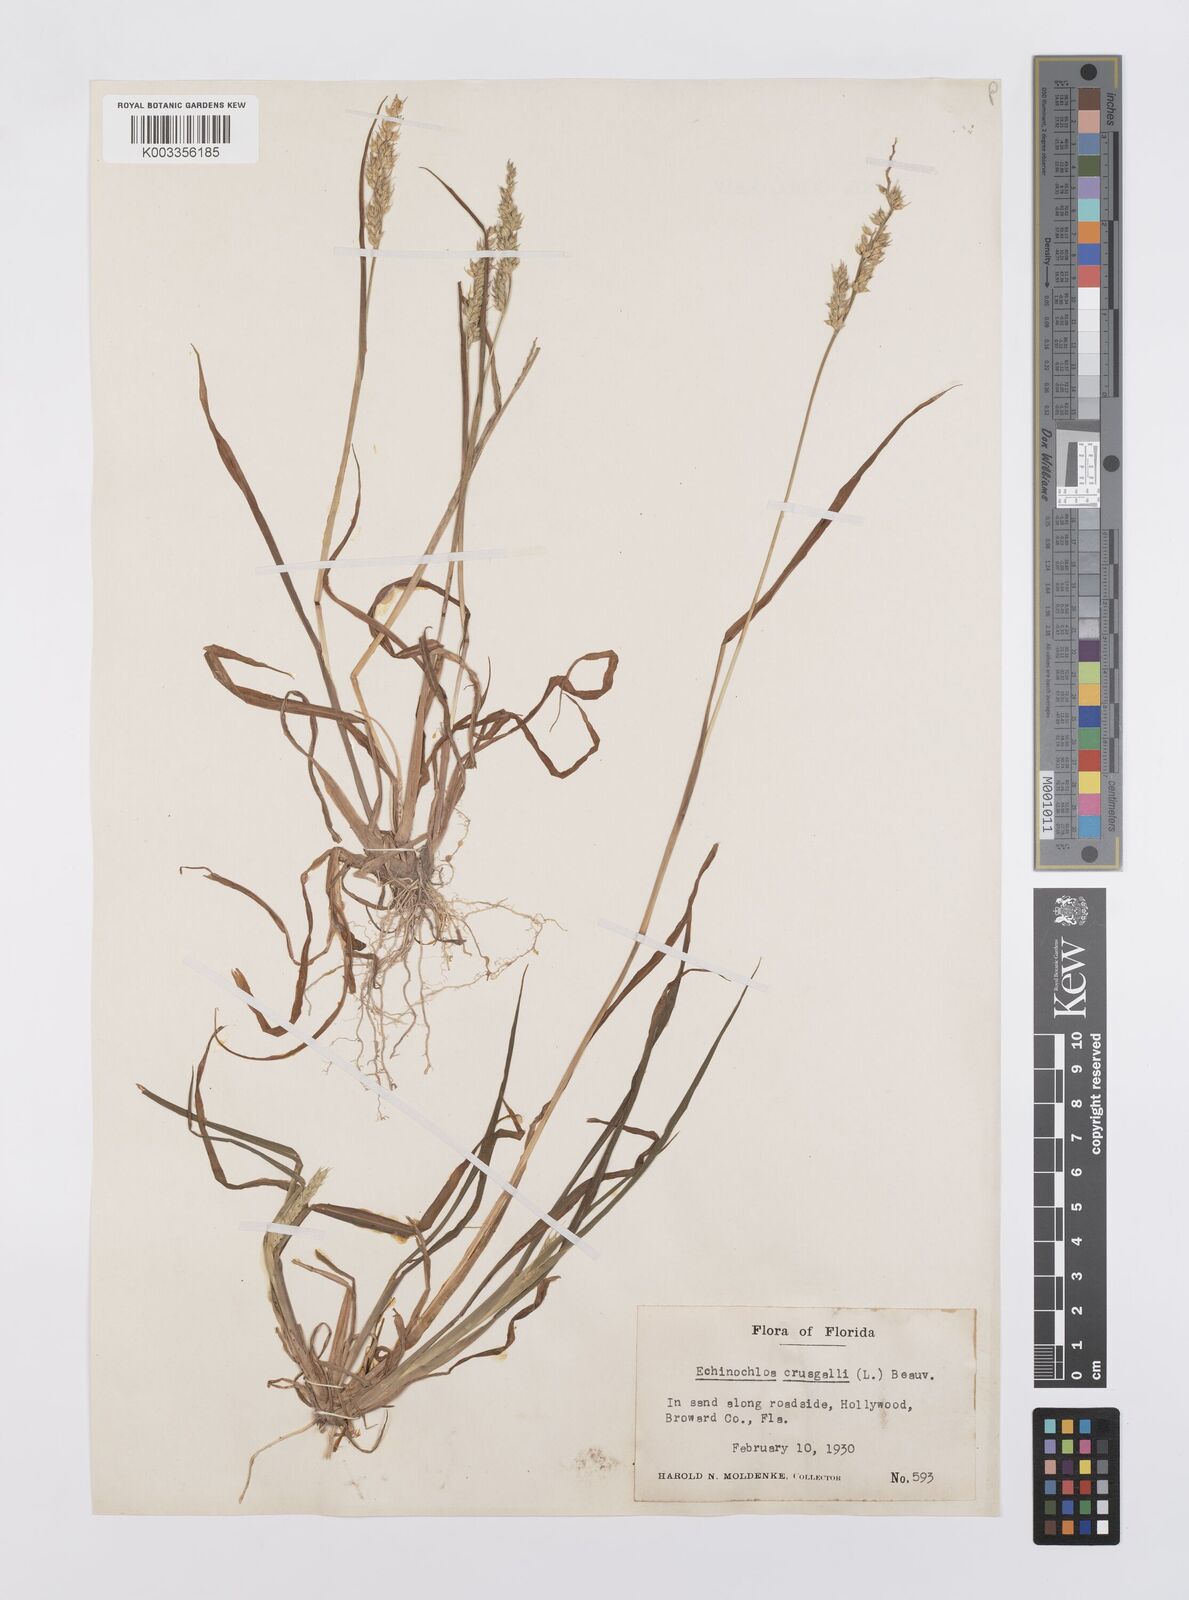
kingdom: Plantae
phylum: Tracheophyta
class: Liliopsida
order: Poales
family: Poaceae
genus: Echinochloa
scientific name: Echinochloa crus-galli
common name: Cockspur
